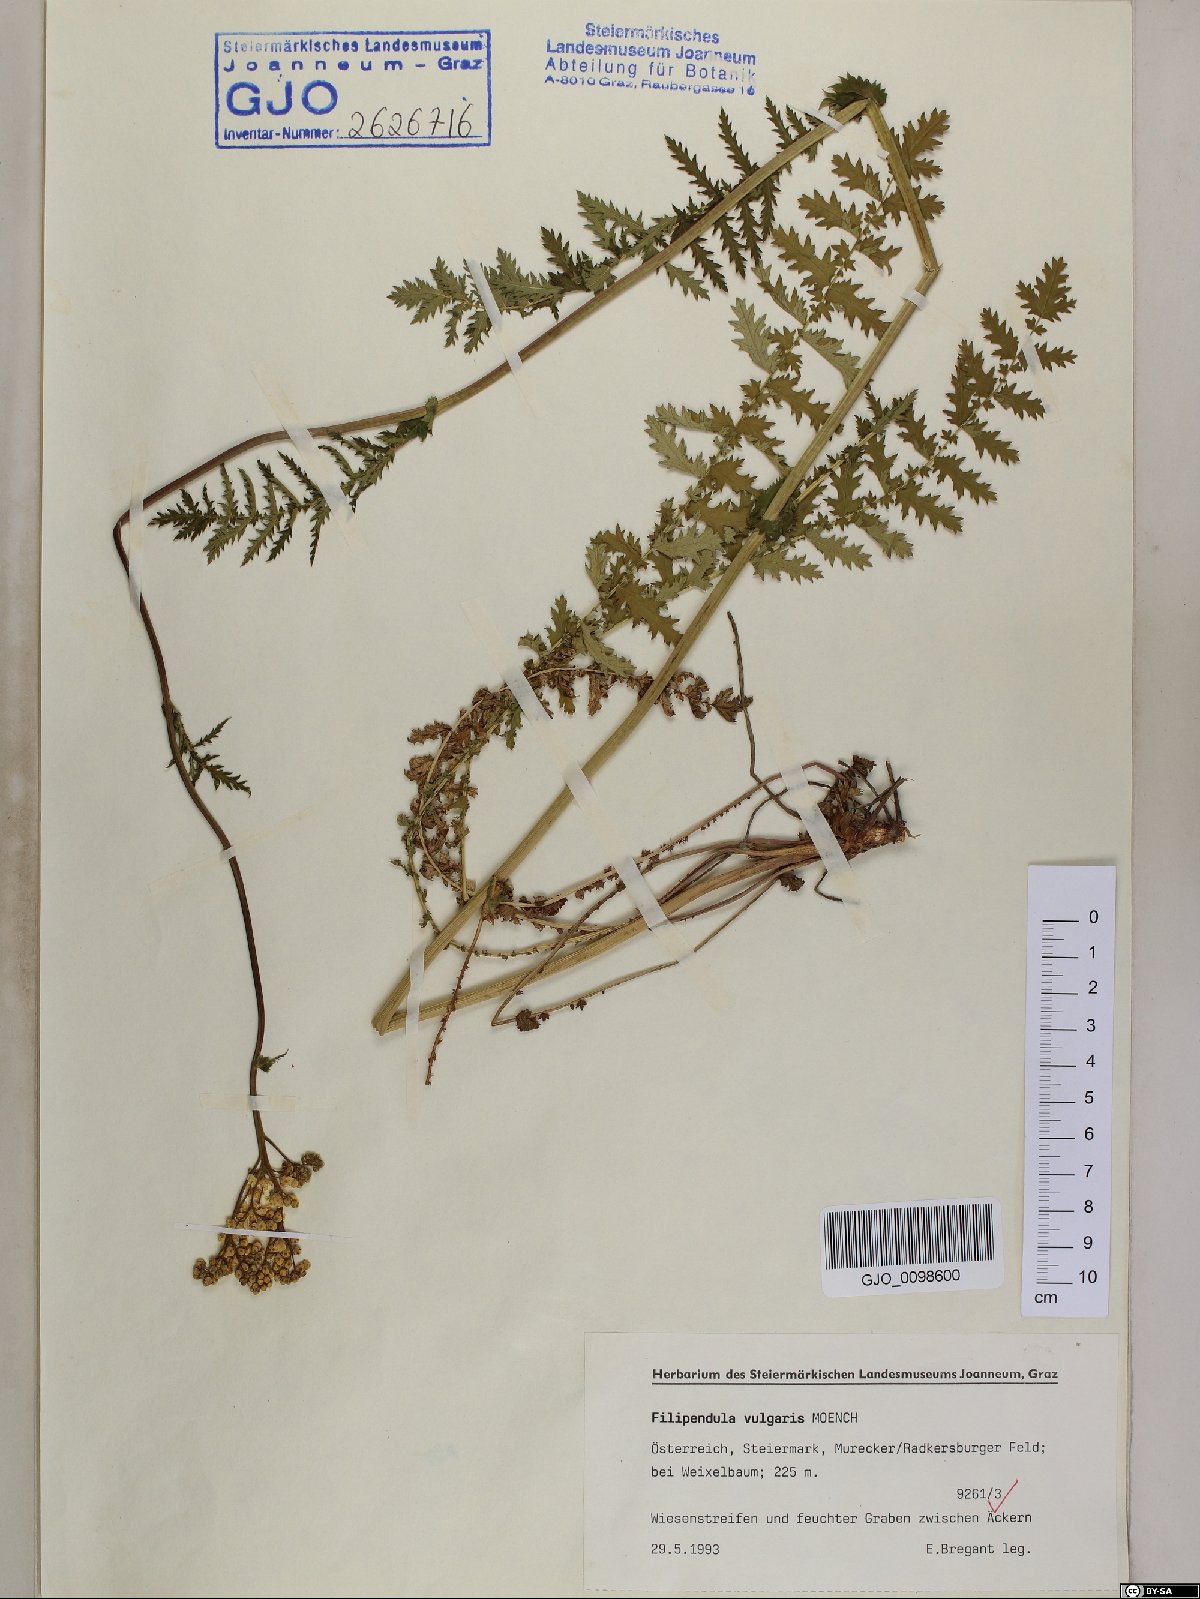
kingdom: Plantae
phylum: Tracheophyta
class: Magnoliopsida
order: Rosales
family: Rosaceae
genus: Filipendula
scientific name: Filipendula vulgaris
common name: Dropwort
